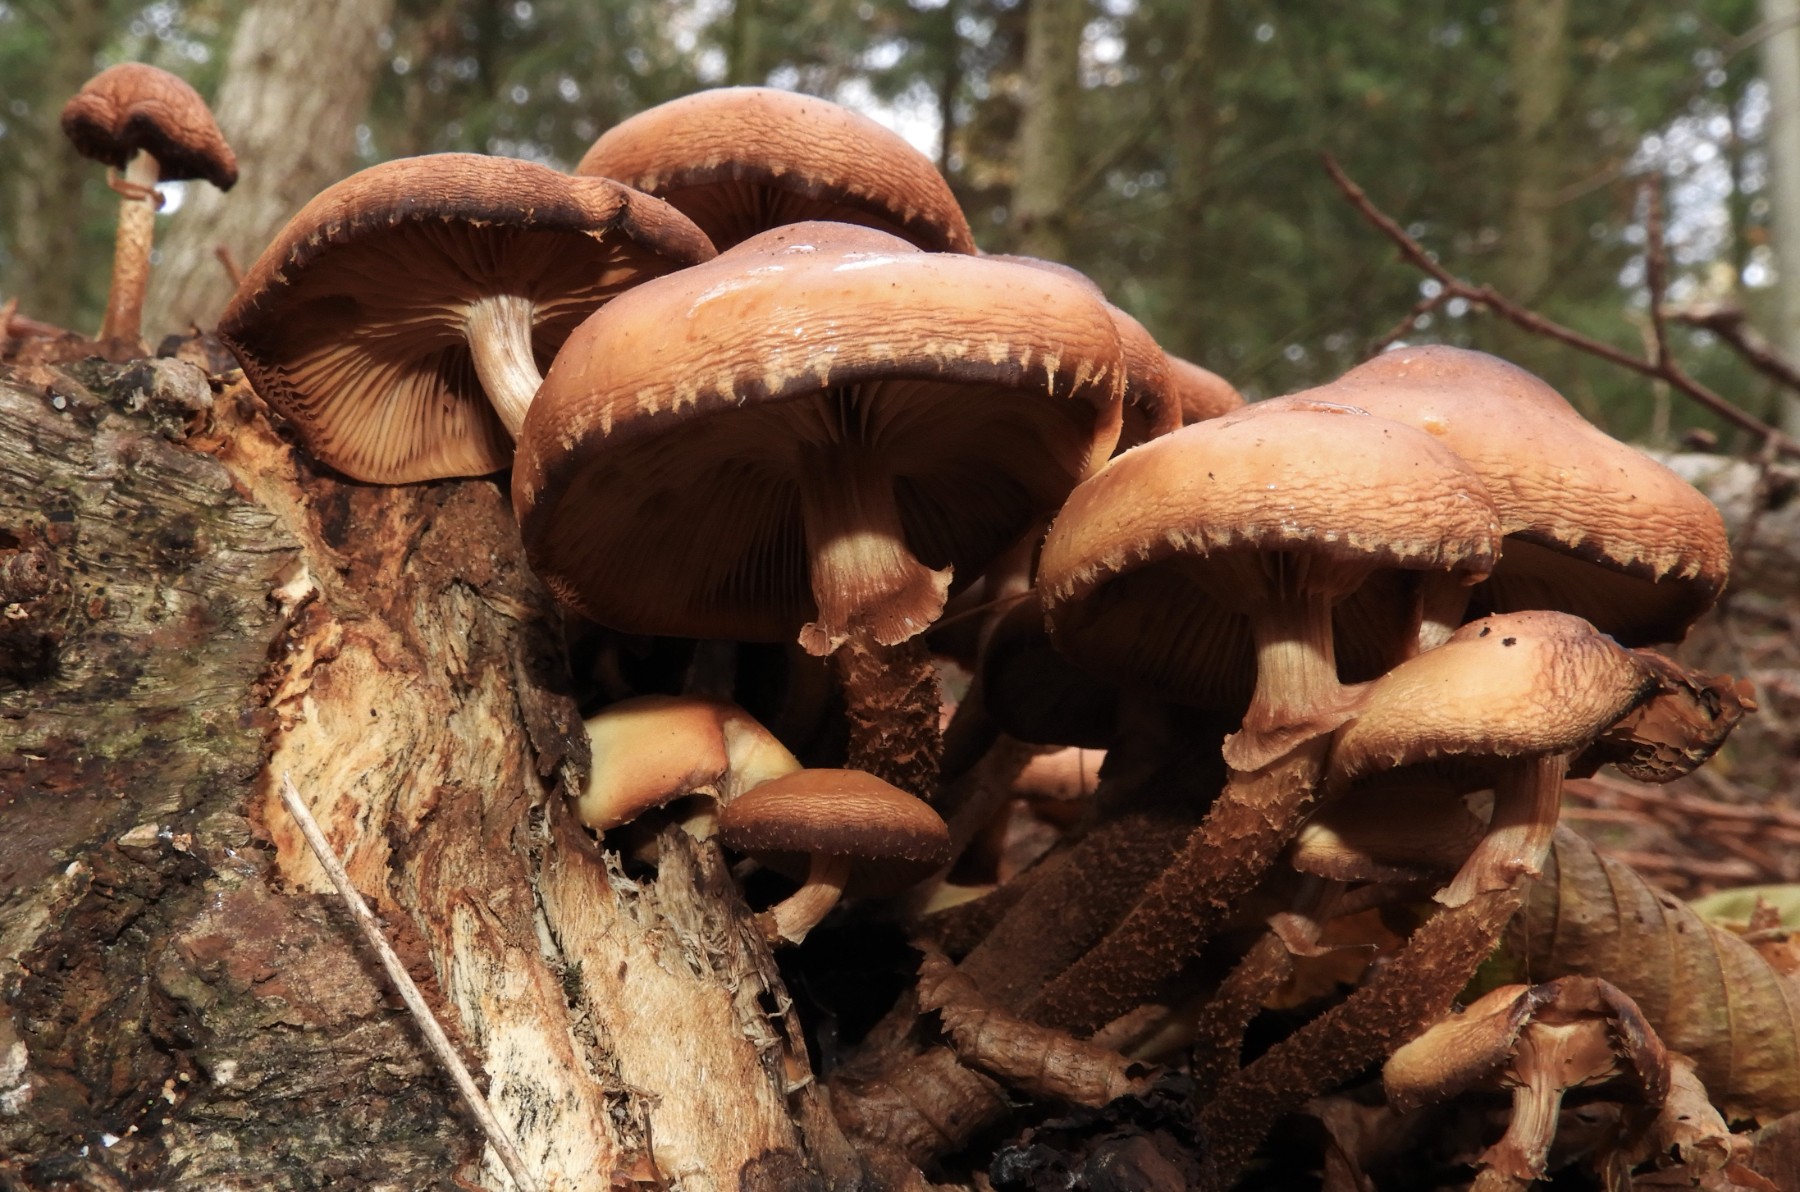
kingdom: Fungi
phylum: Basidiomycota
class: Agaricomycetes
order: Agaricales
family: Strophariaceae
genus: Kuehneromyces
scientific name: Kuehneromyces mutabilis
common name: foranderlig skælhat
